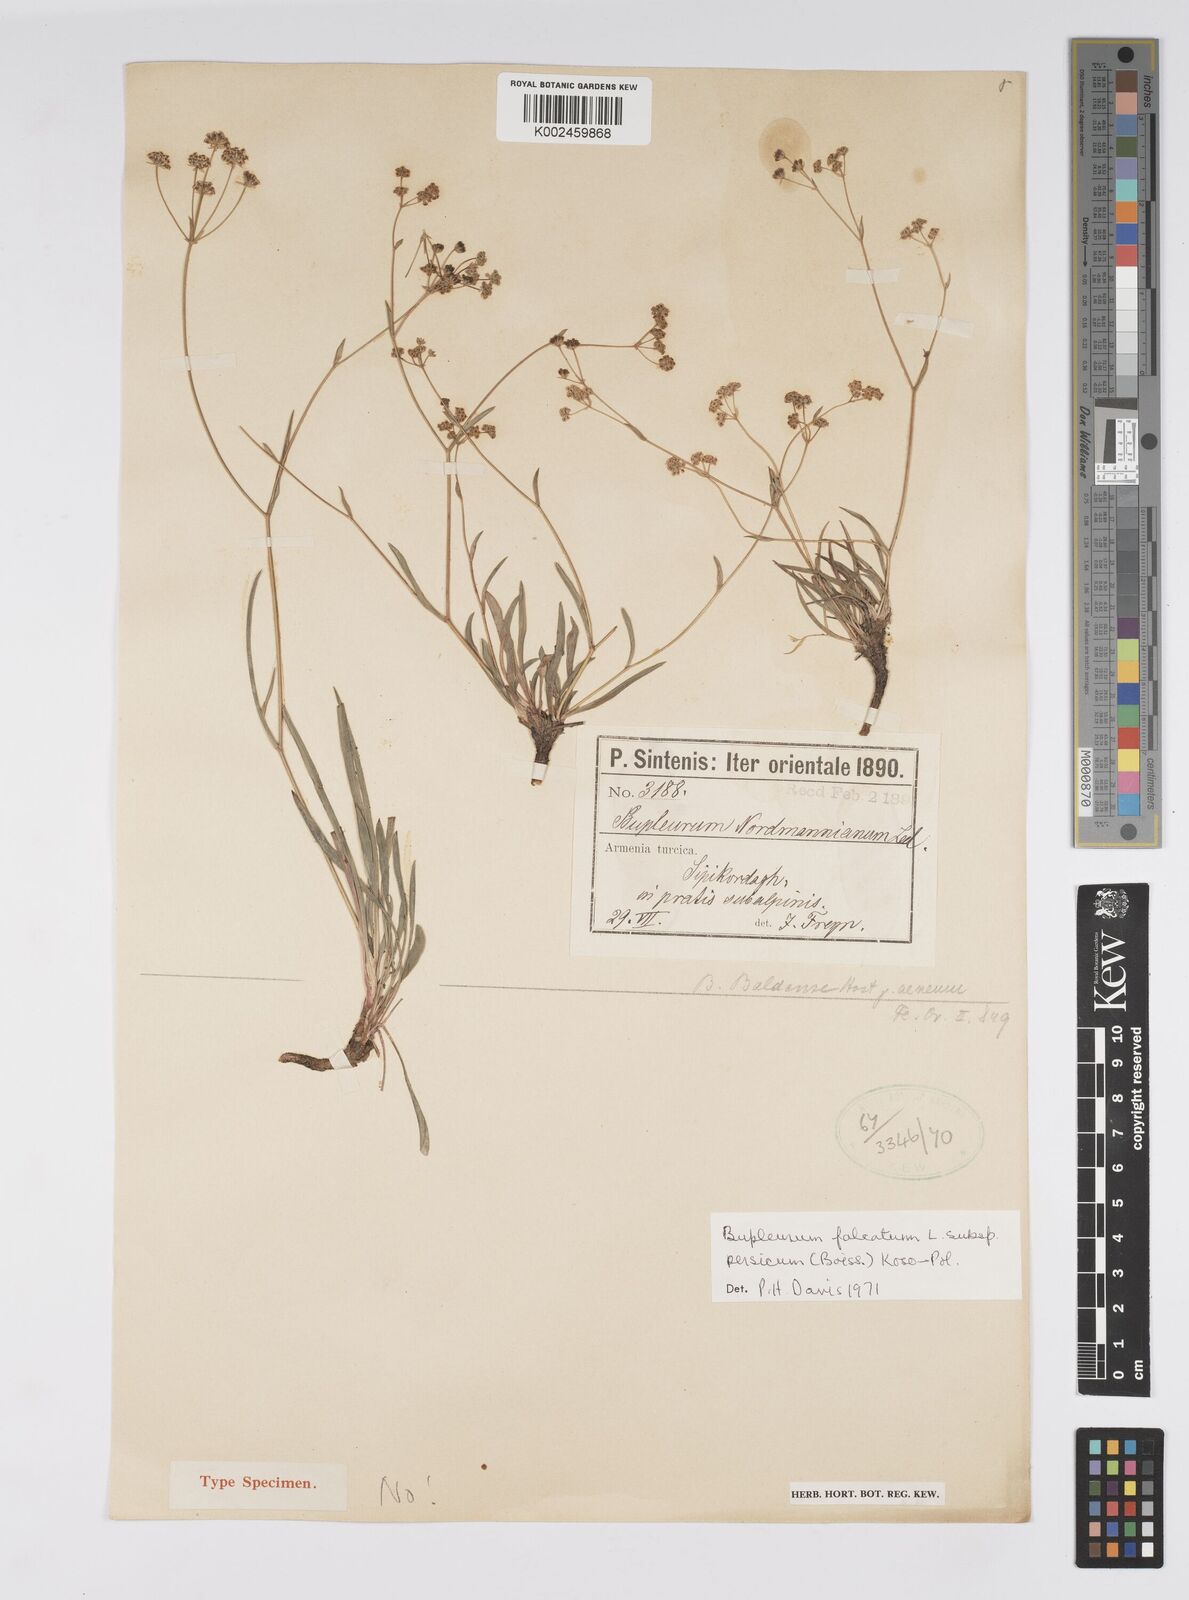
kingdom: Plantae
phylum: Tracheophyta
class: Magnoliopsida
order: Apiales
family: Apiaceae
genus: Bupleurum
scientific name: Bupleurum falcatum
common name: Sickle-leaved hare's-ear
